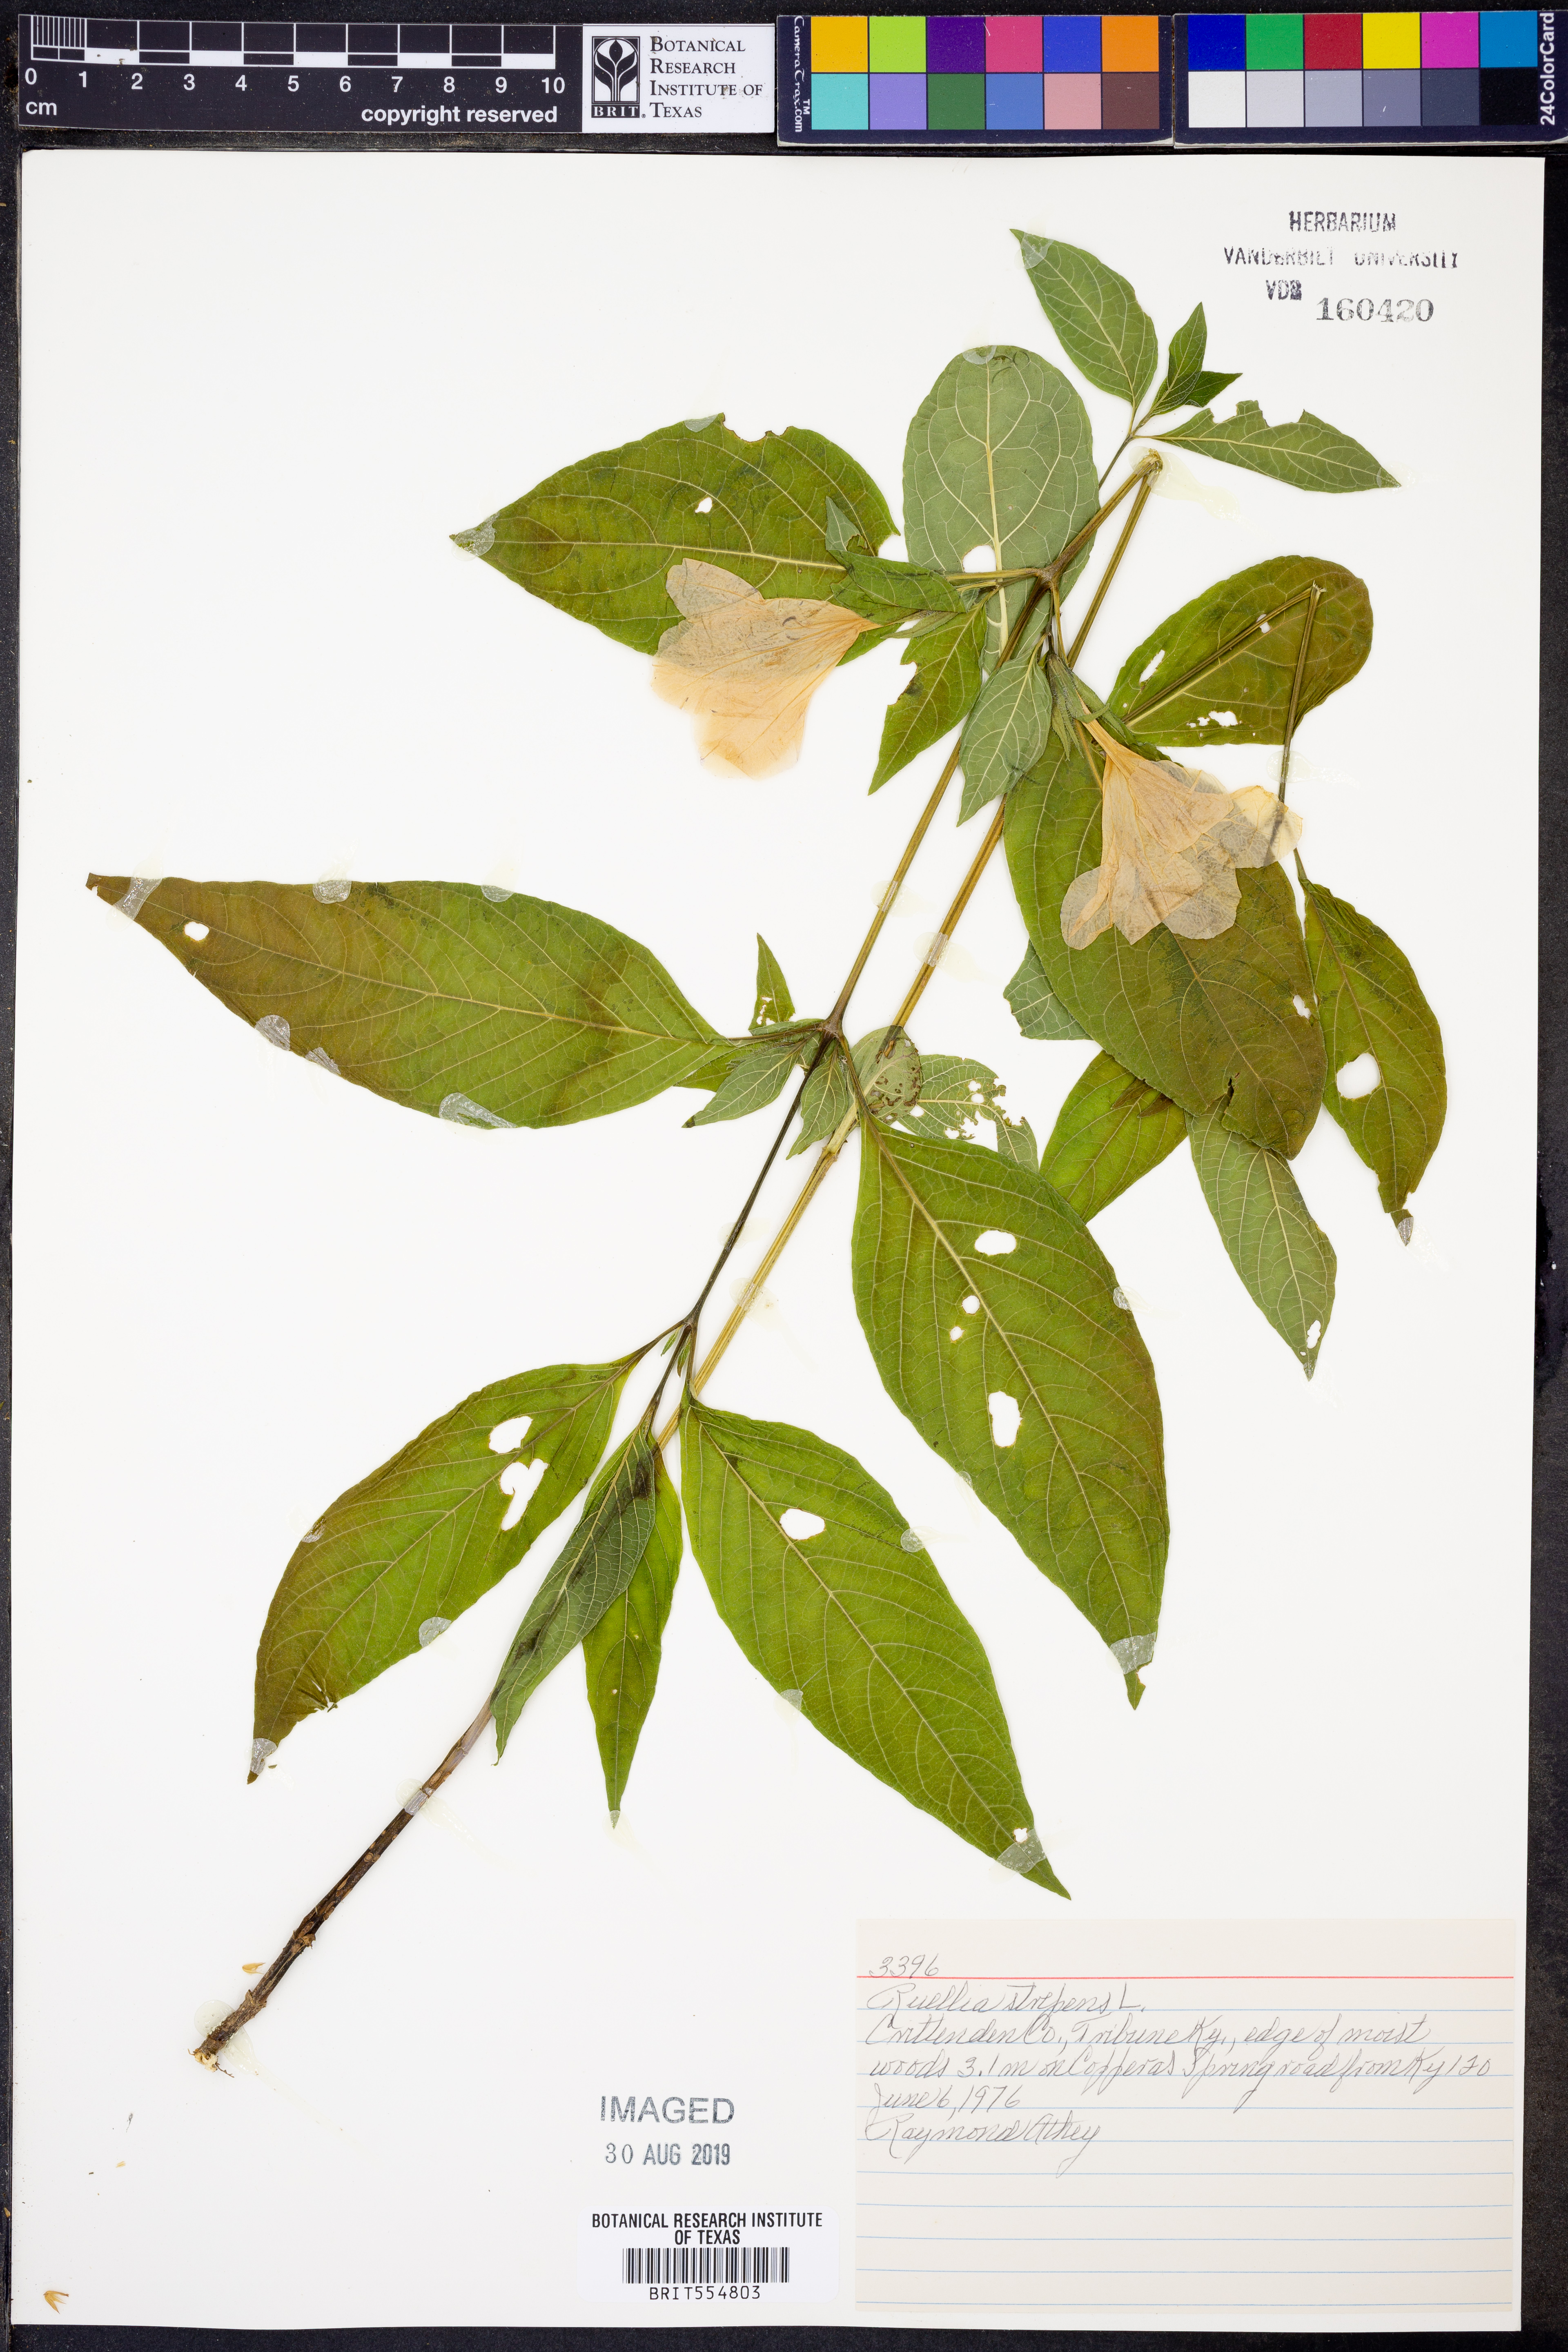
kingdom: Plantae
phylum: Tracheophyta
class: Magnoliopsida
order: Lamiales
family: Acanthaceae
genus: Ruellia
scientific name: Ruellia strepens
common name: Limestone wild petunia
